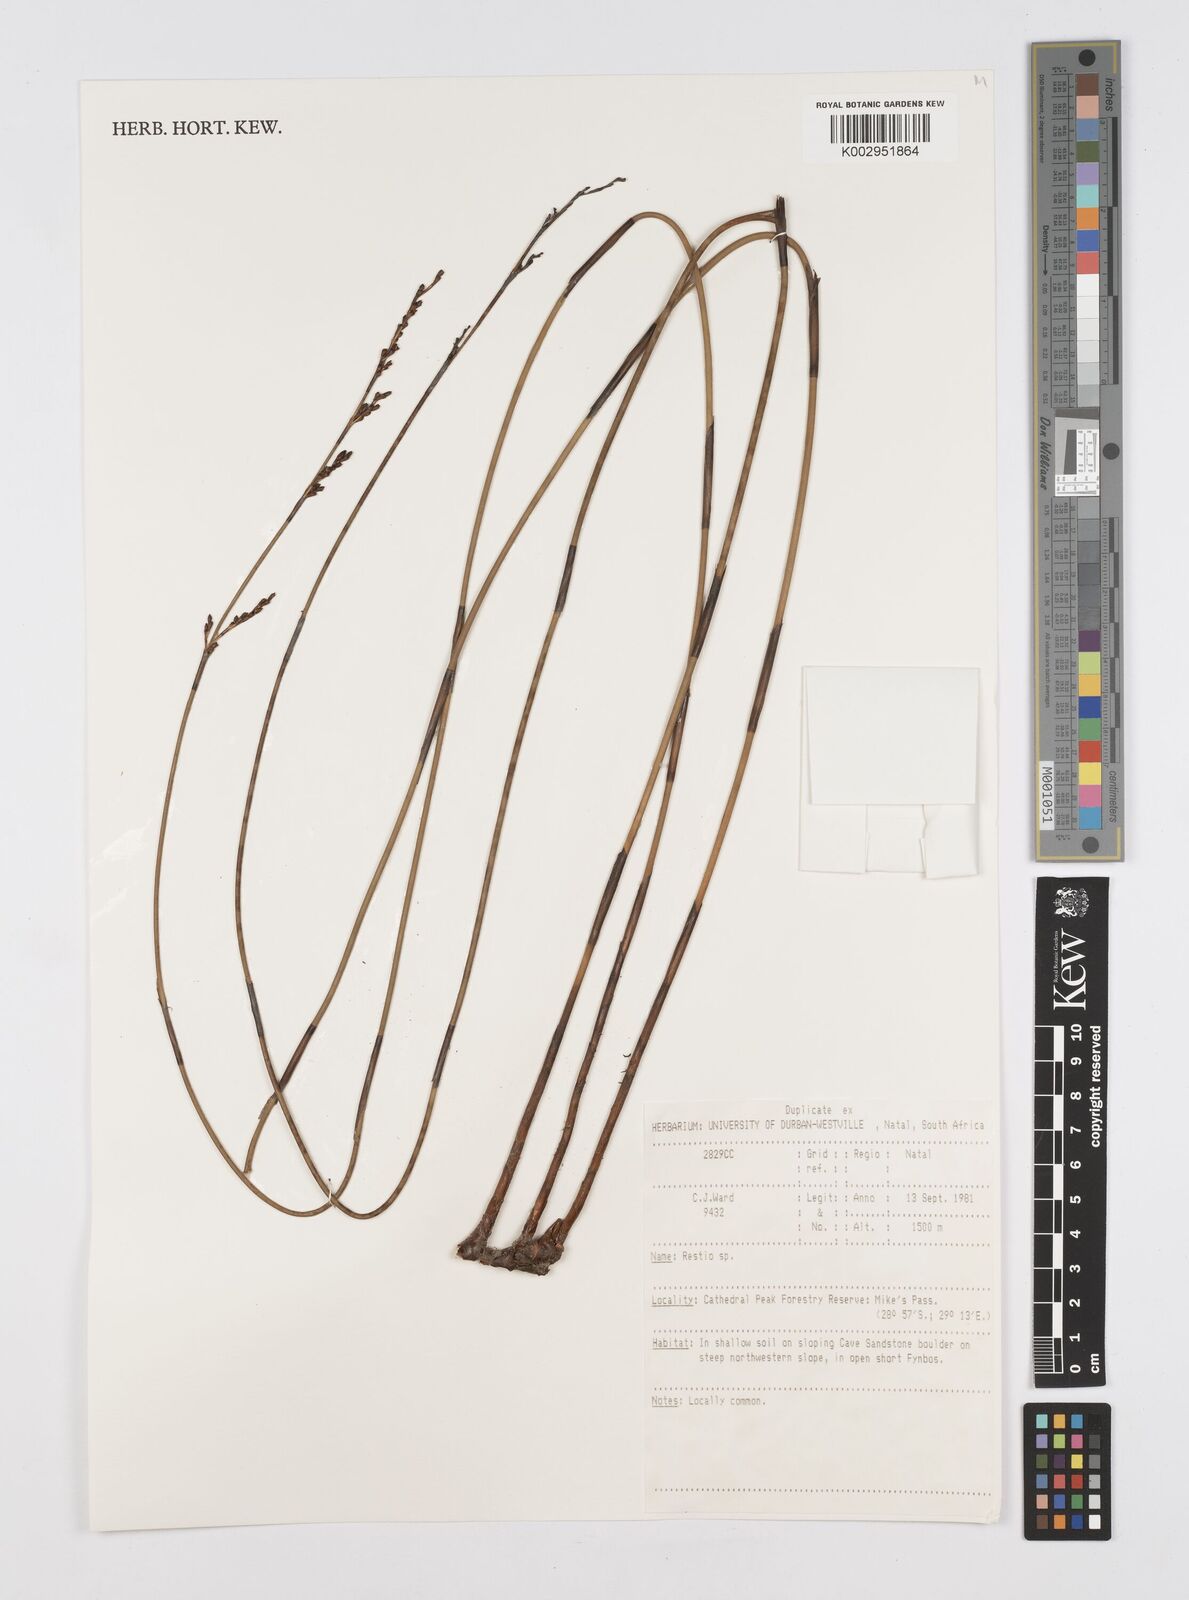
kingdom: Plantae
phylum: Tracheophyta
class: Liliopsida
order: Poales
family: Restionaceae
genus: Restio
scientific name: Restio
